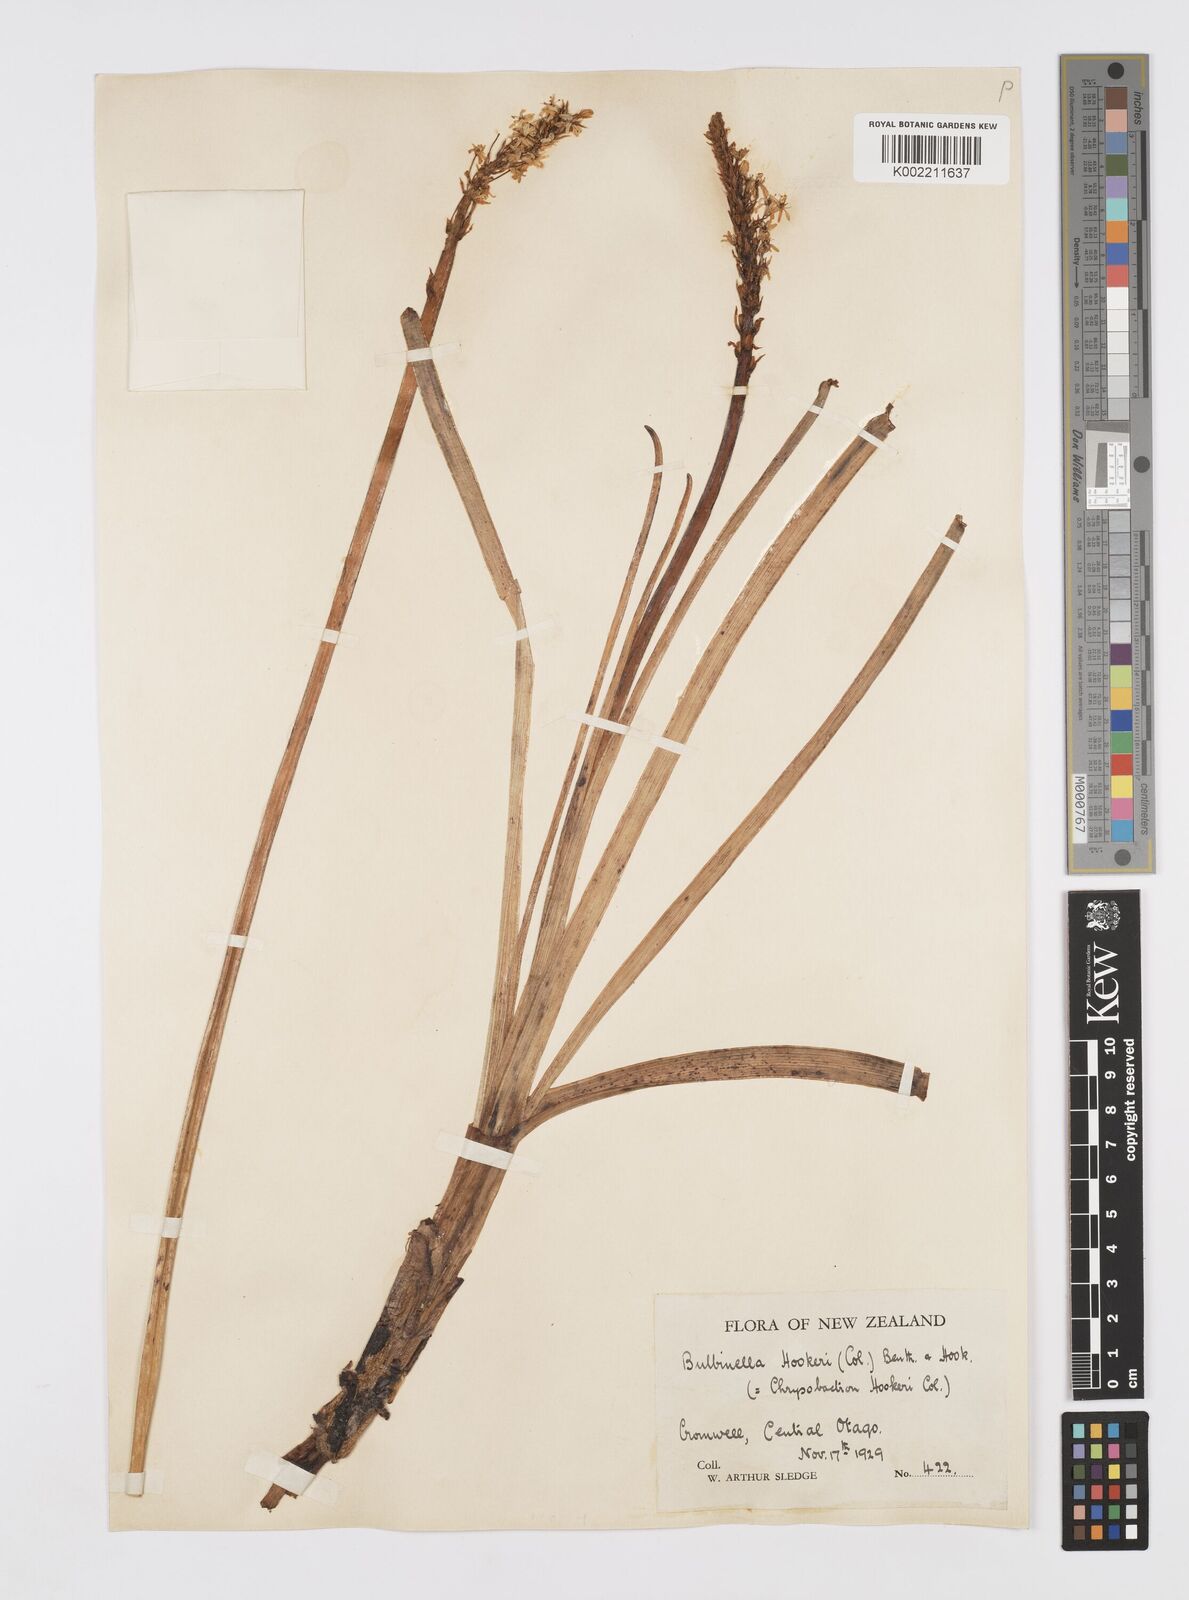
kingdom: Plantae
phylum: Tracheophyta
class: Liliopsida
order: Asparagales
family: Asphodelaceae
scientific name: Asphodelaceae
